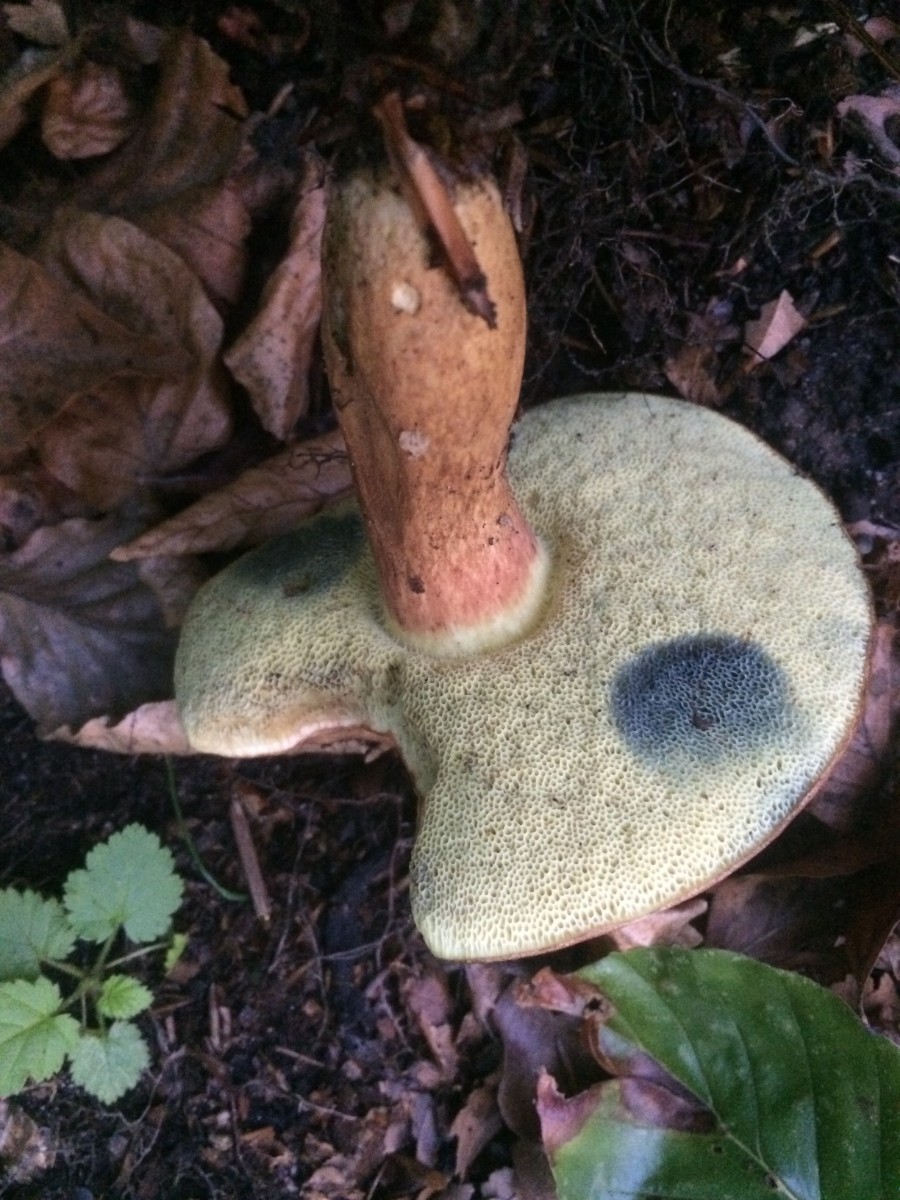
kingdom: Fungi
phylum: Basidiomycota
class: Agaricomycetes
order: Boletales
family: Boletaceae
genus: Imleria
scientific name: Imleria badia
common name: brunstokket rørhat
